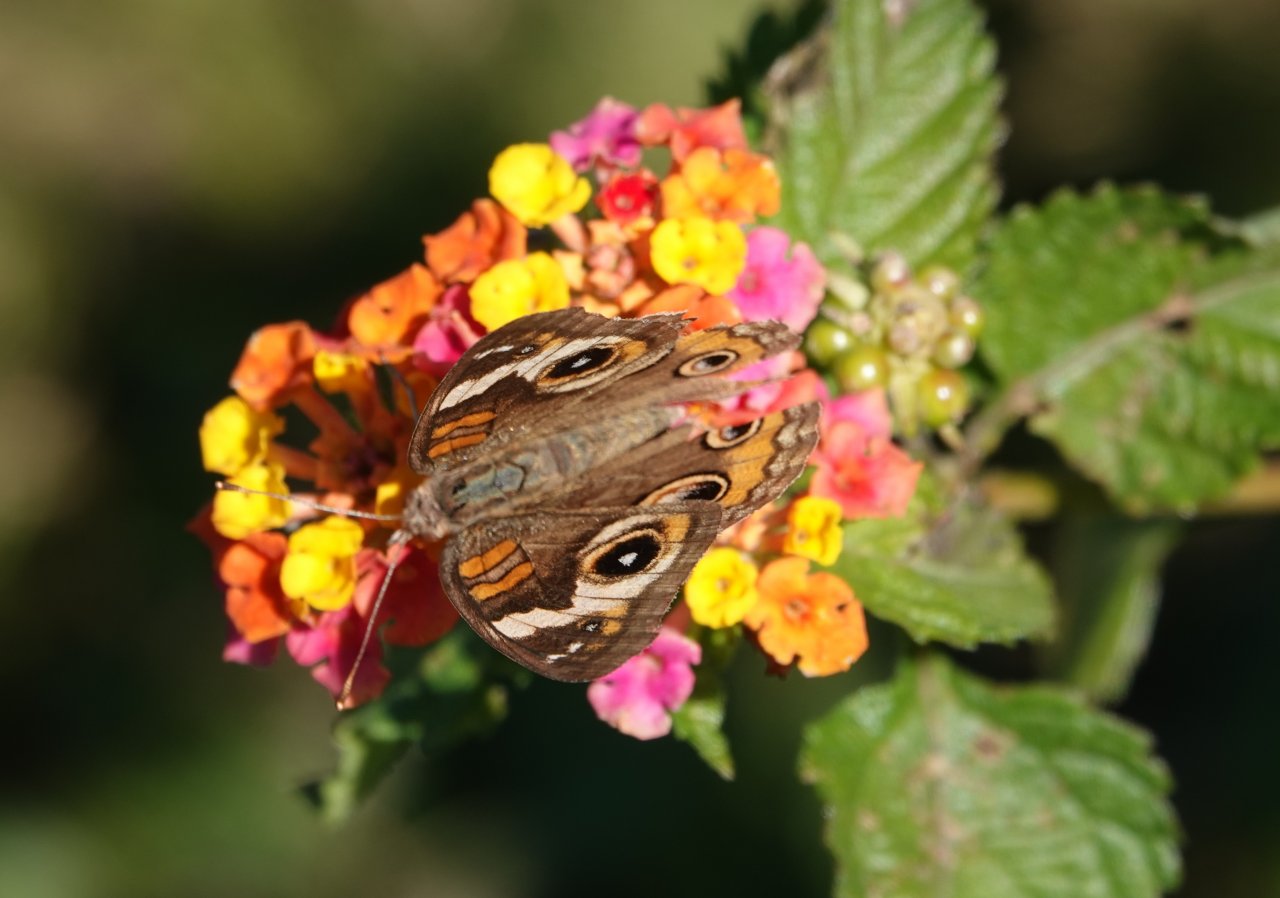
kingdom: Animalia
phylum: Arthropoda
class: Insecta
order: Lepidoptera
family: Nymphalidae
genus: Junonia
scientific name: Junonia coenia
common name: Common Buckeye
